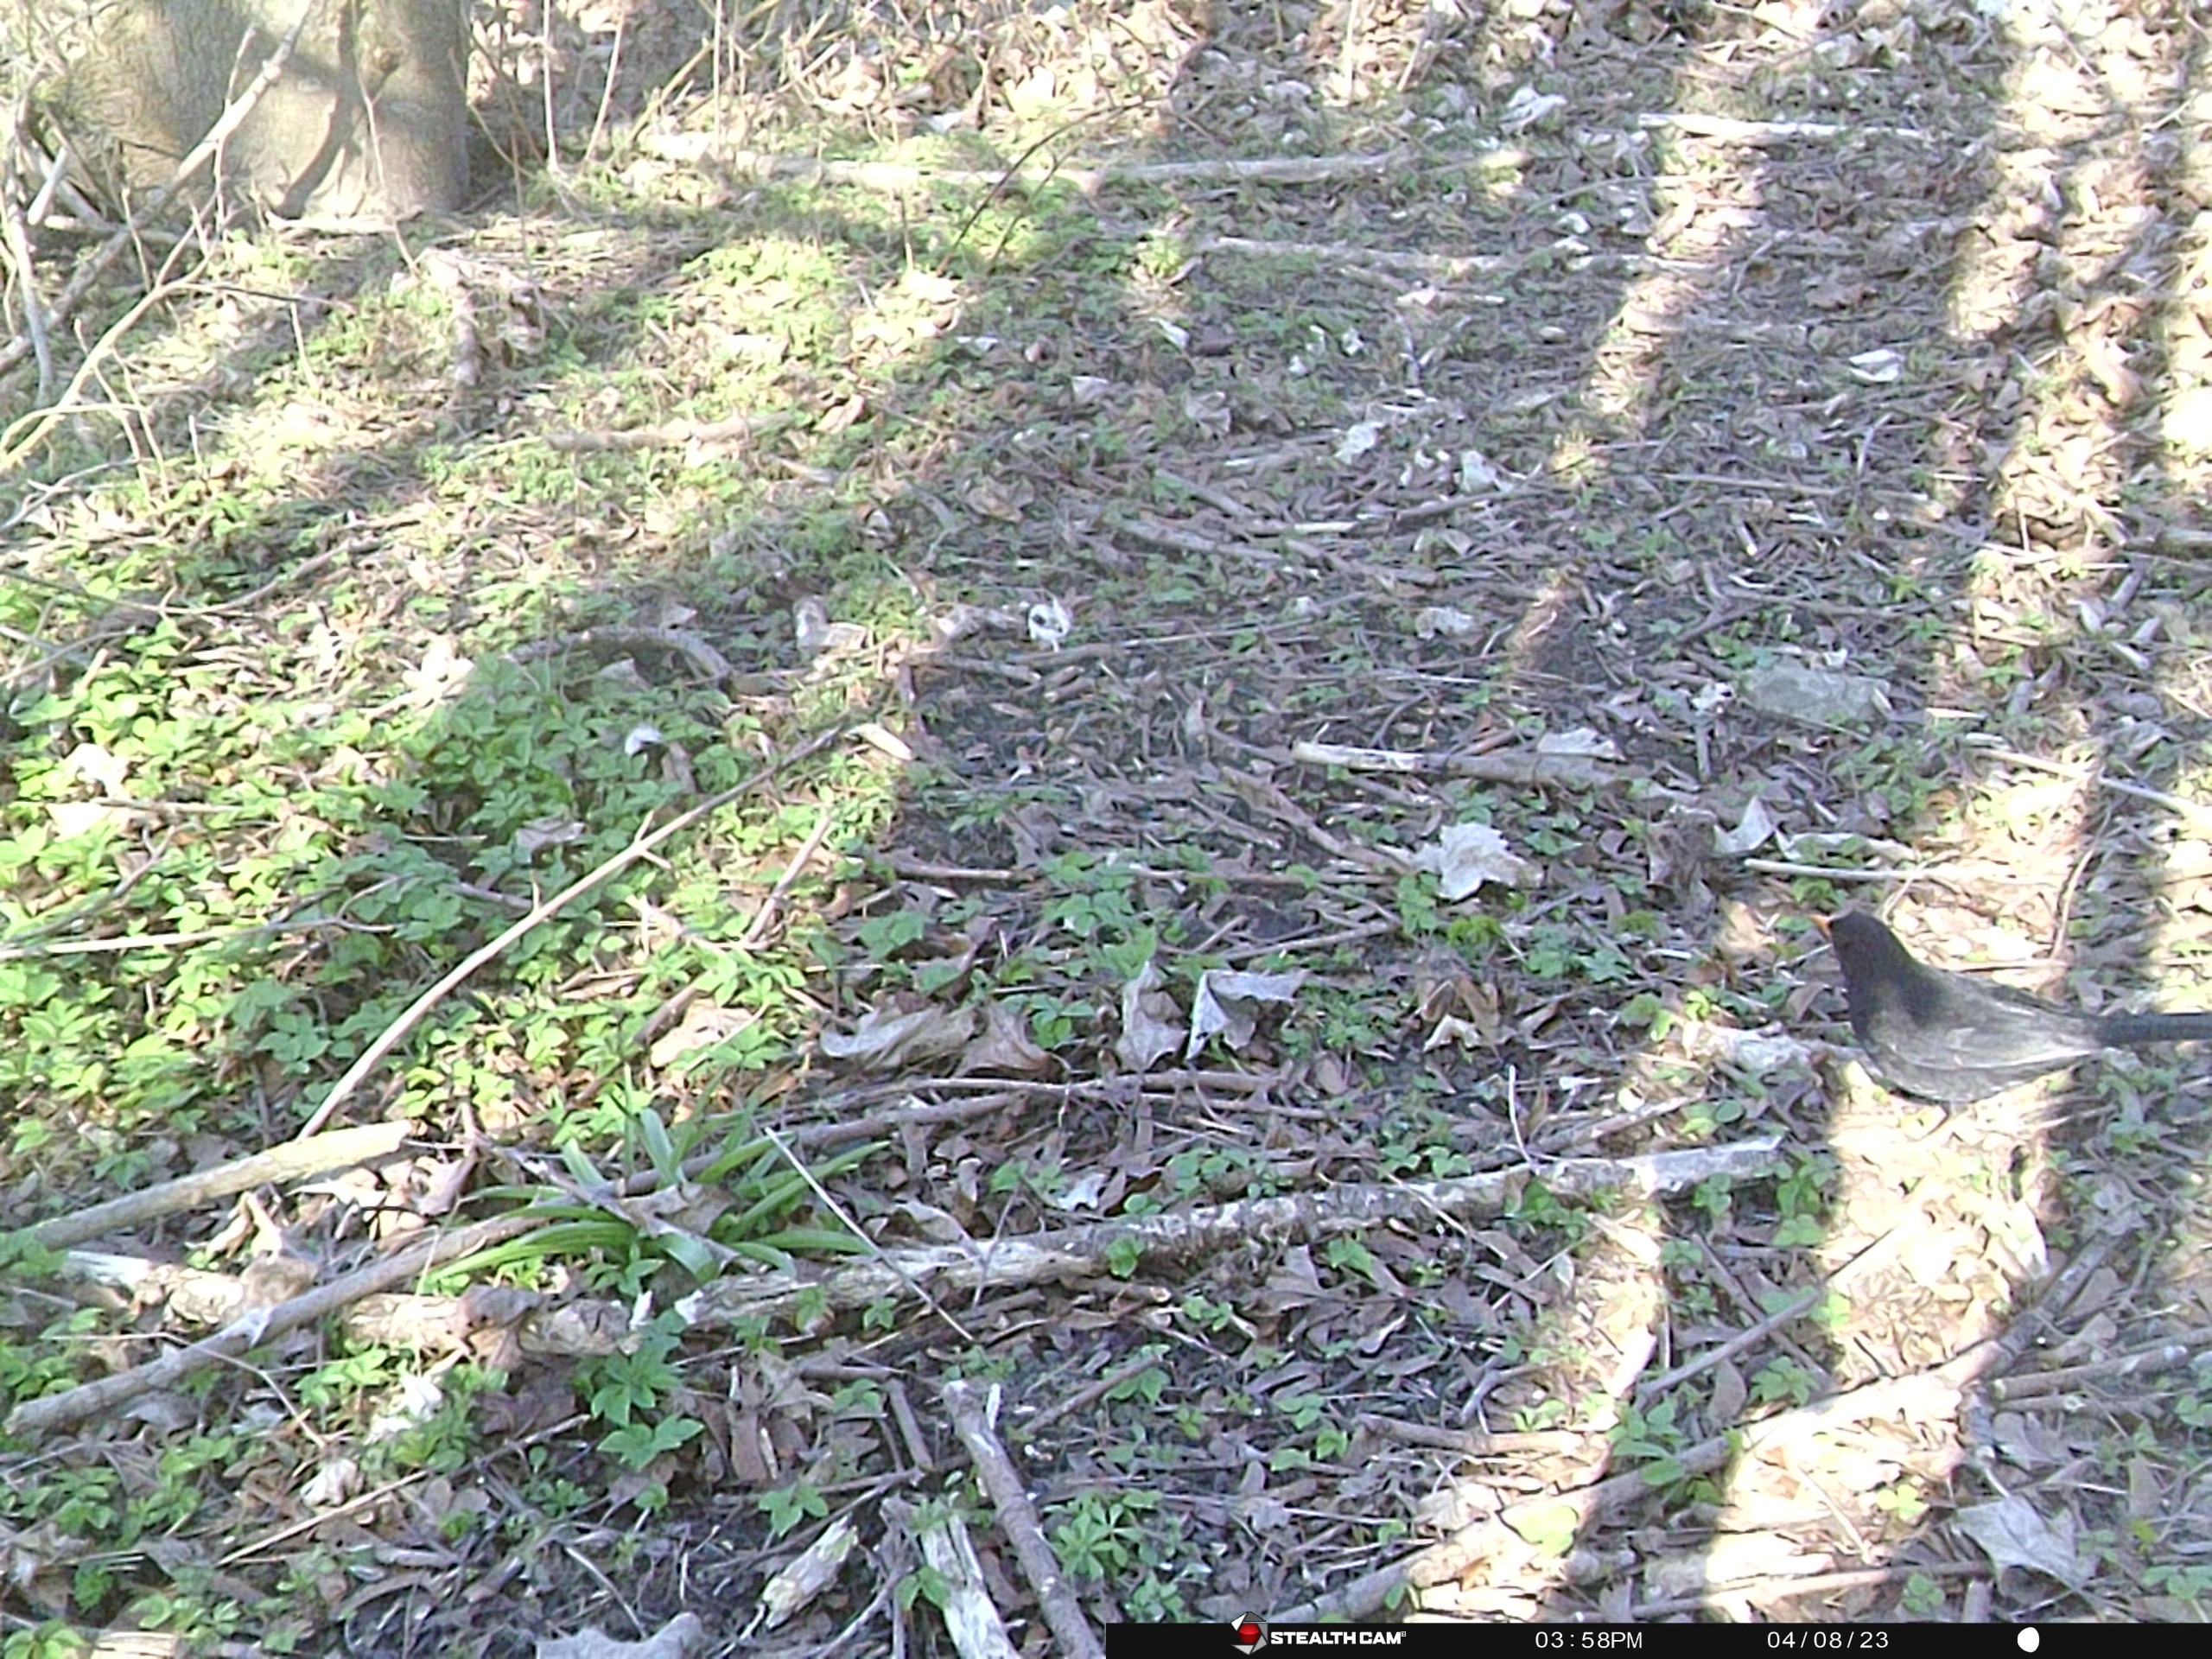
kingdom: Animalia
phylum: Chordata
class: Aves
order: Passeriformes
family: Turdidae
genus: Turdus
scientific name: Turdus merula
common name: Solsort
